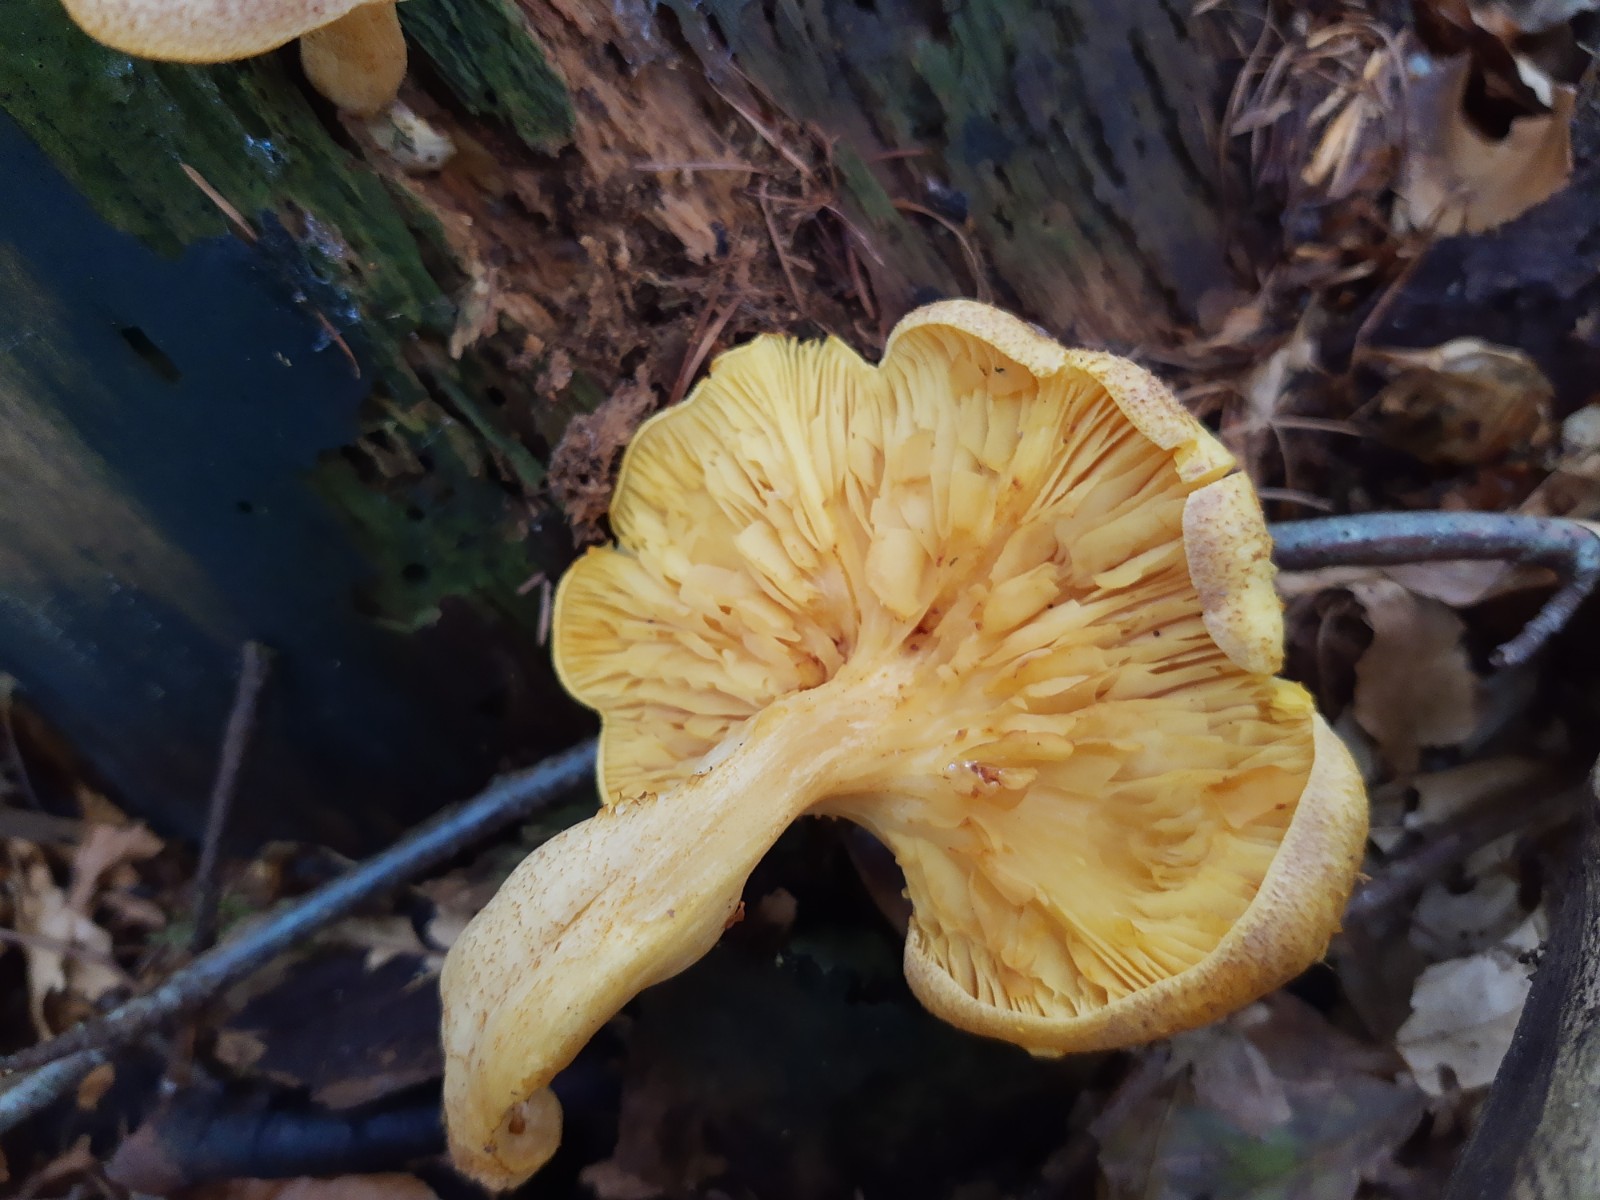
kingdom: Fungi
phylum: Basidiomycota
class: Agaricomycetes
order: Agaricales
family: Tricholomataceae
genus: Tricholomopsis
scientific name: Tricholomopsis rutilans
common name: purpur-væbnerhat
